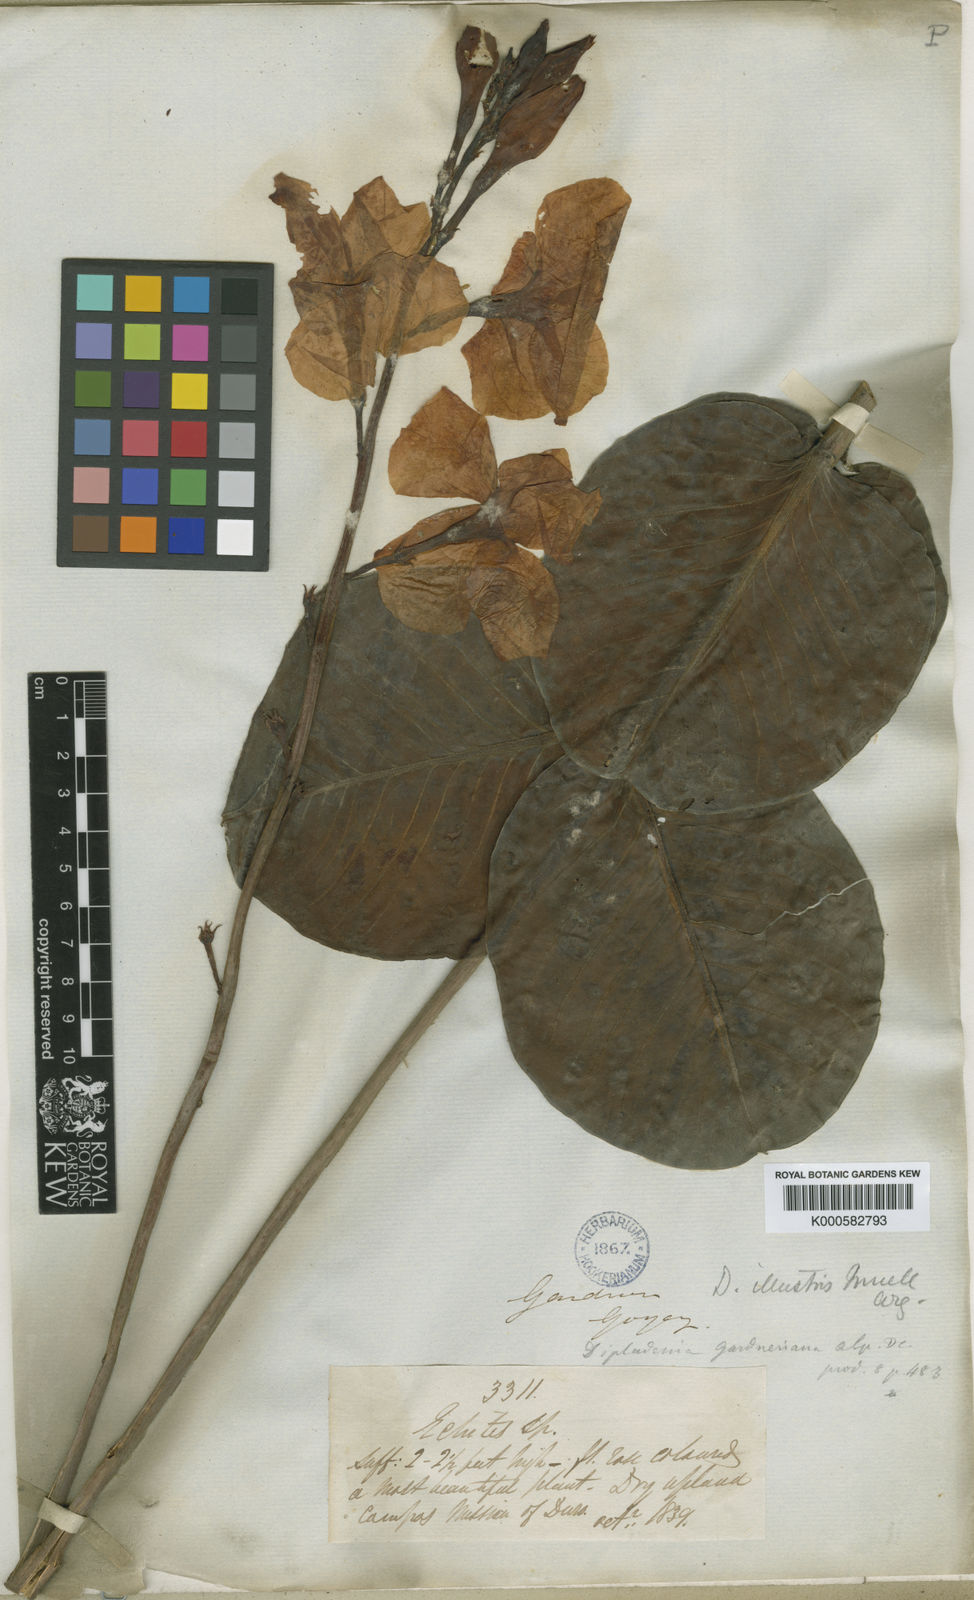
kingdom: Plantae
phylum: Tracheophyta
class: Magnoliopsida
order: Gentianales
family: Apocynaceae
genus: Mandevilla
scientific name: Mandevilla illustris
